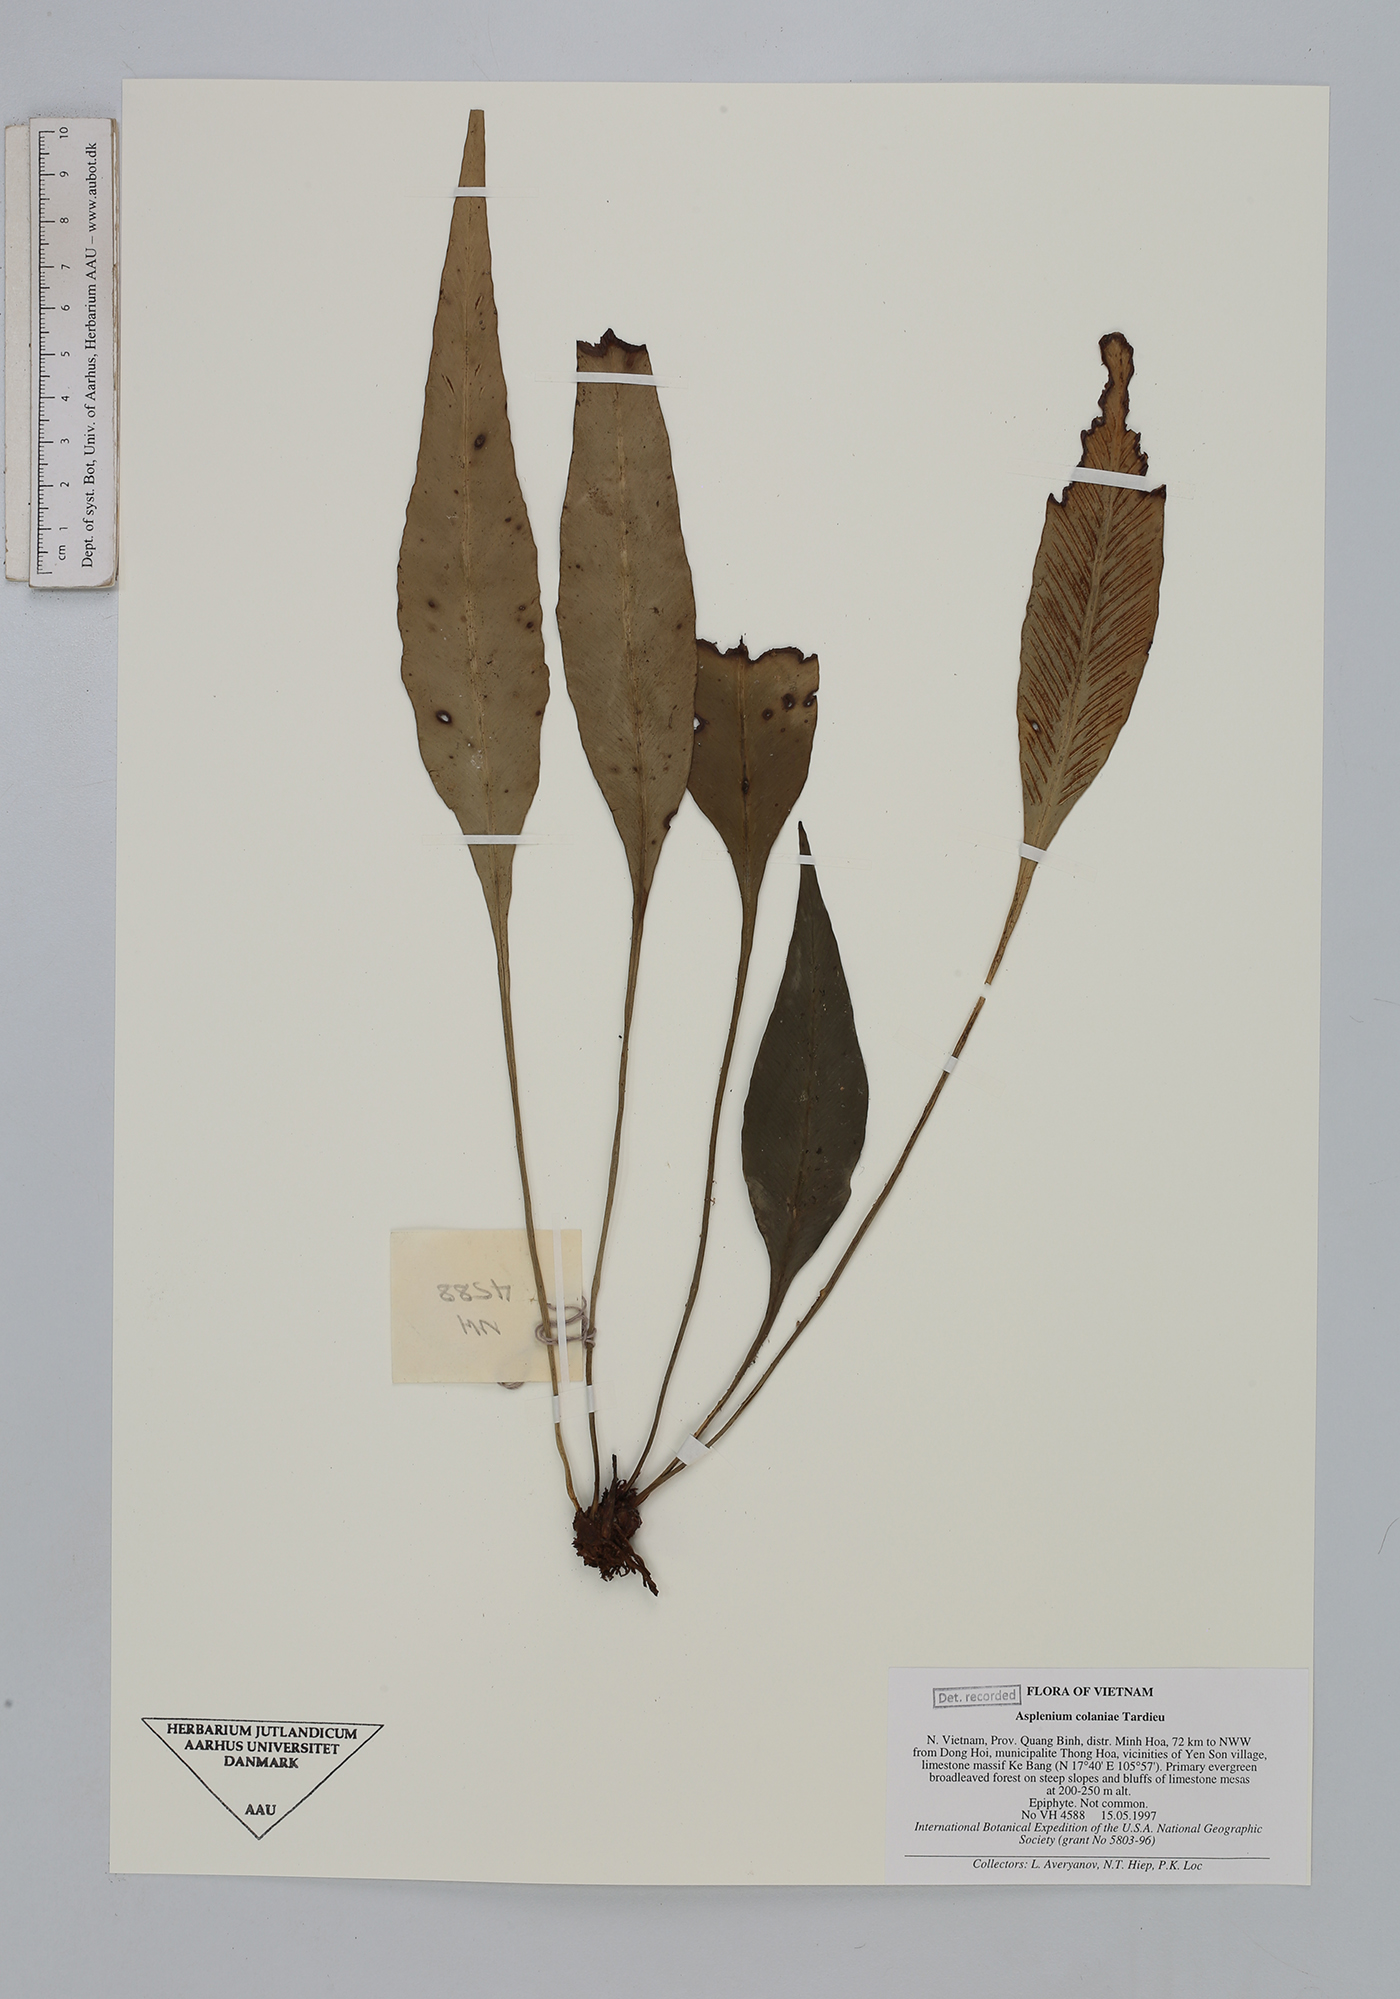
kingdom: Plantae
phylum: Tracheophyta
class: Polypodiopsida
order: Polypodiales
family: Aspleniaceae
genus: Asplenium
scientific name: Asplenium phyllitidis
